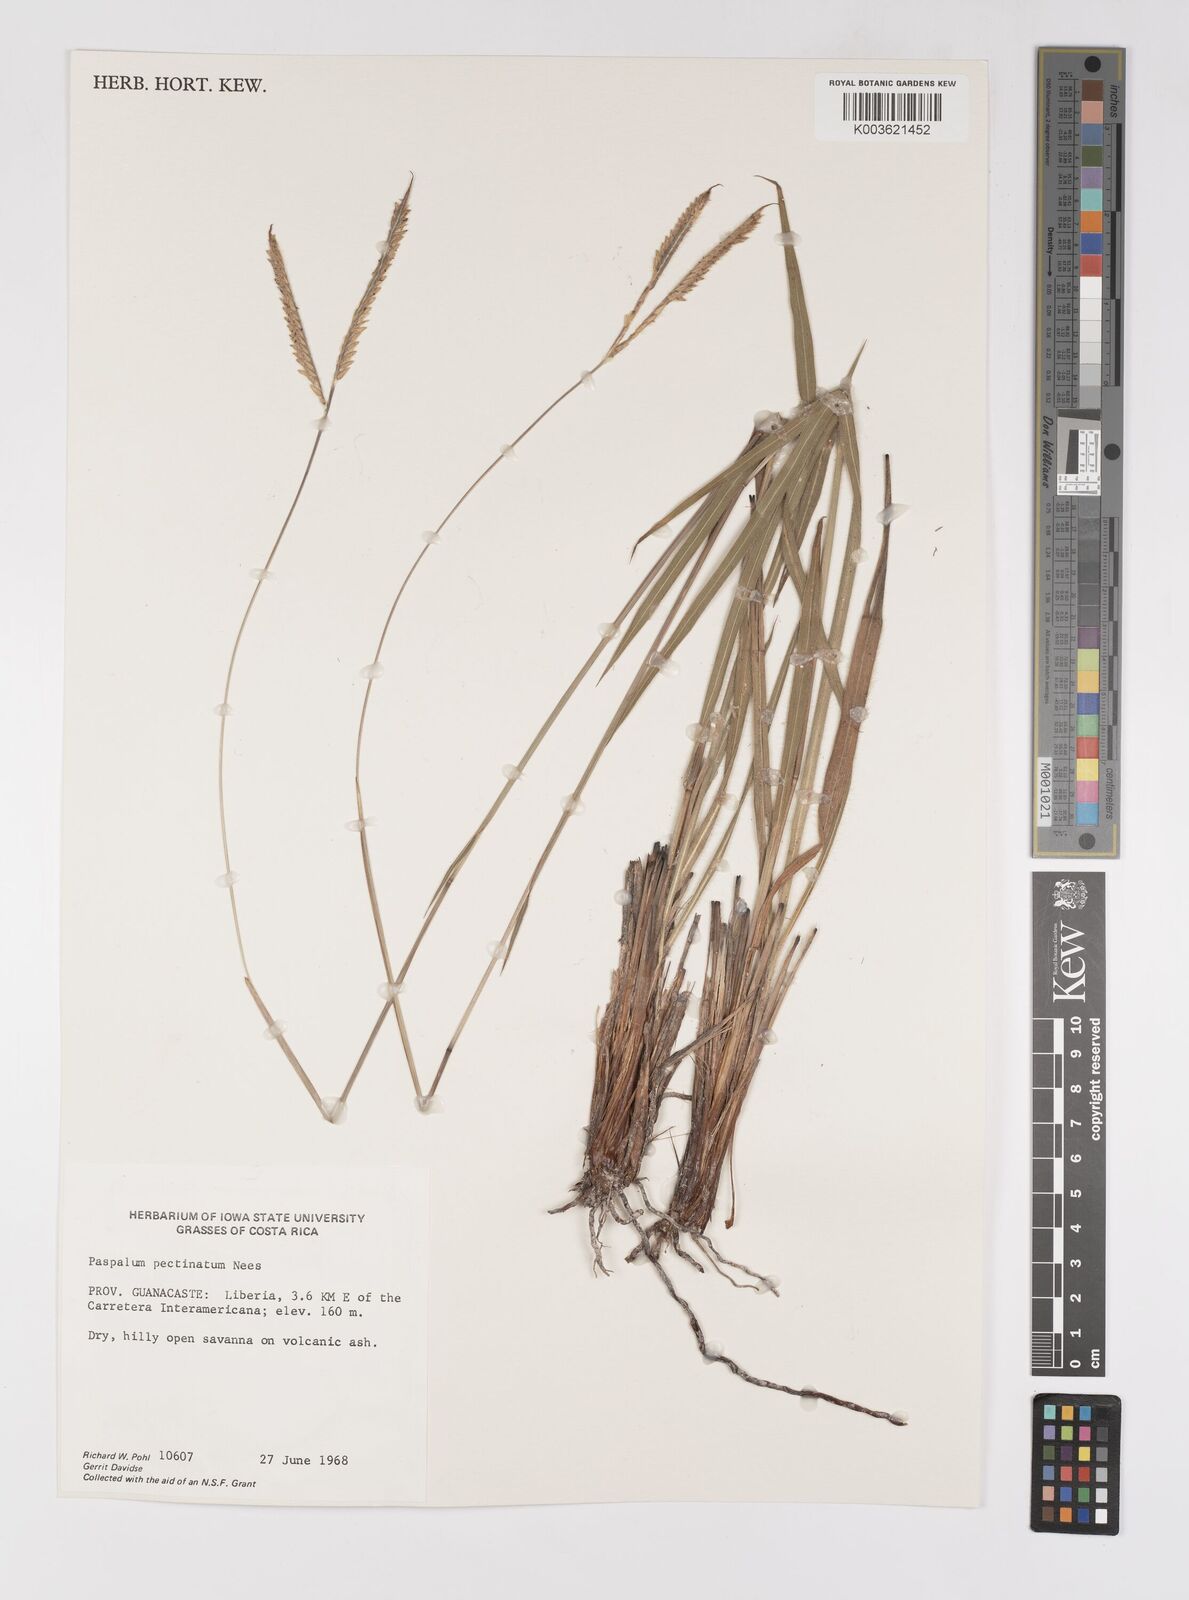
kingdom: Plantae
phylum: Tracheophyta
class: Liliopsida
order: Poales
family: Poaceae
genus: Paspalum
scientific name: Paspalum pectinatum
